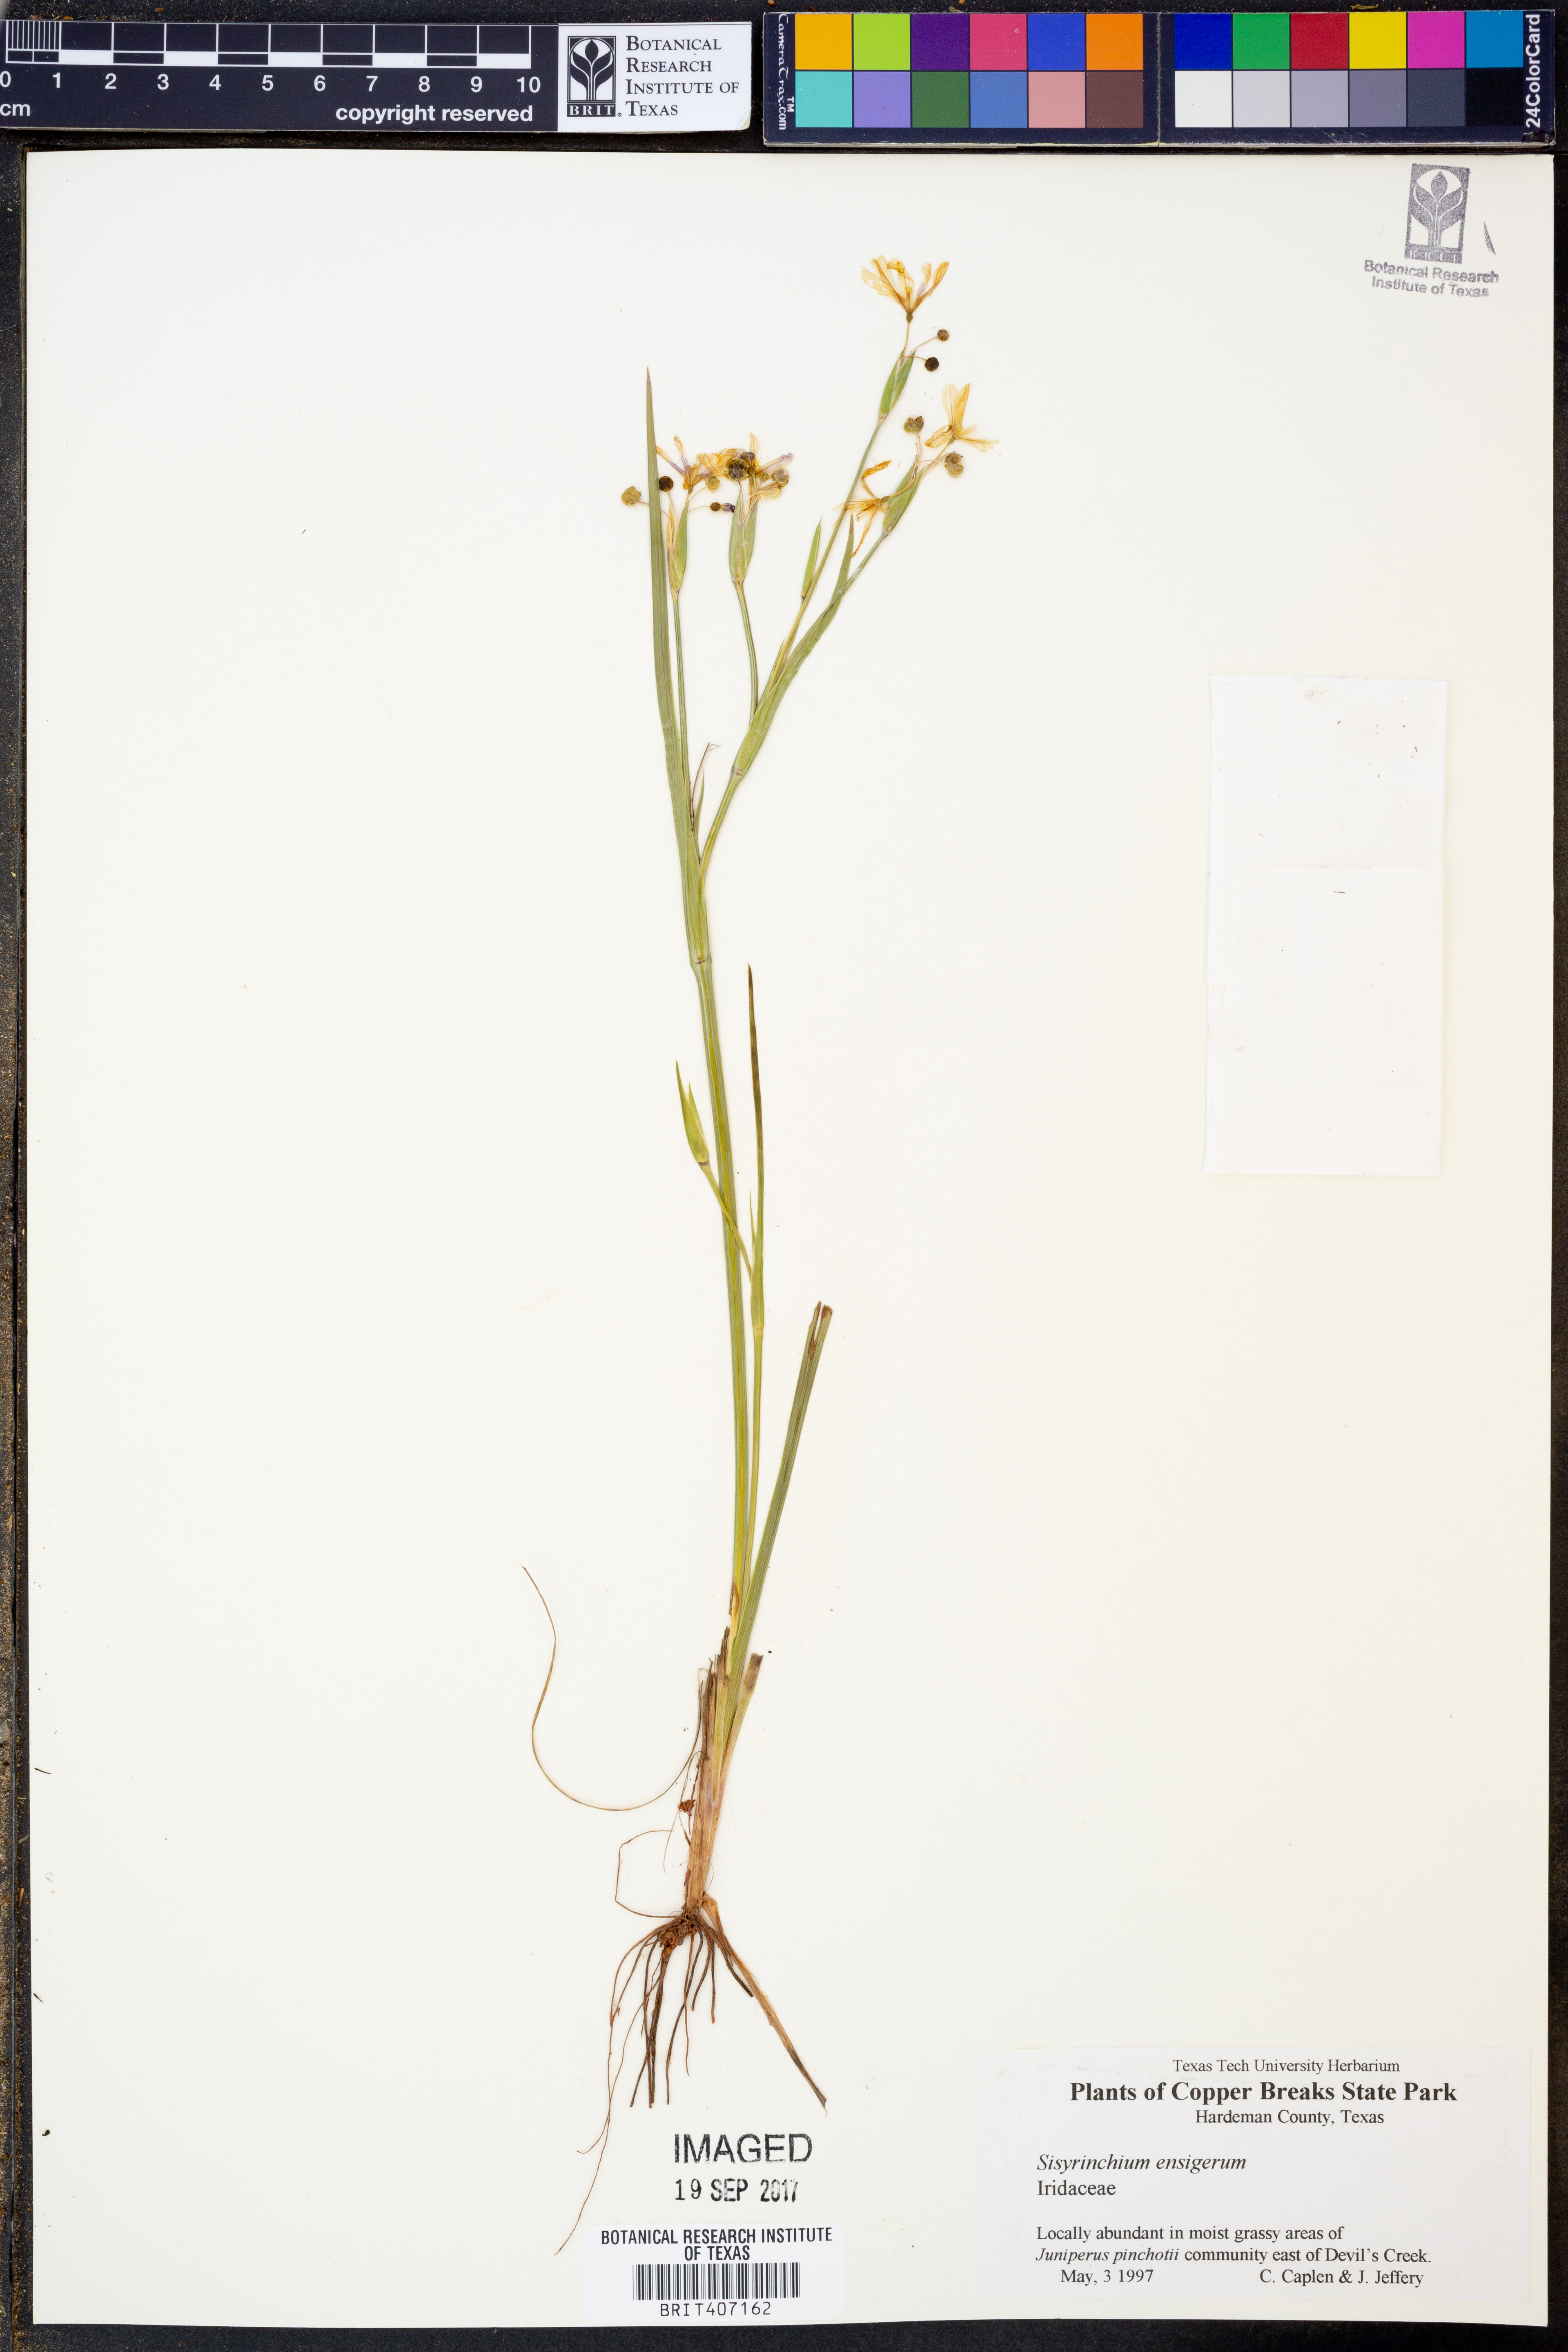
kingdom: Plantae
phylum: Tracheophyta
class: Liliopsida
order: Asparagales
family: Iridaceae
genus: Sisyrinchium
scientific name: Sisyrinchium ensigerum
